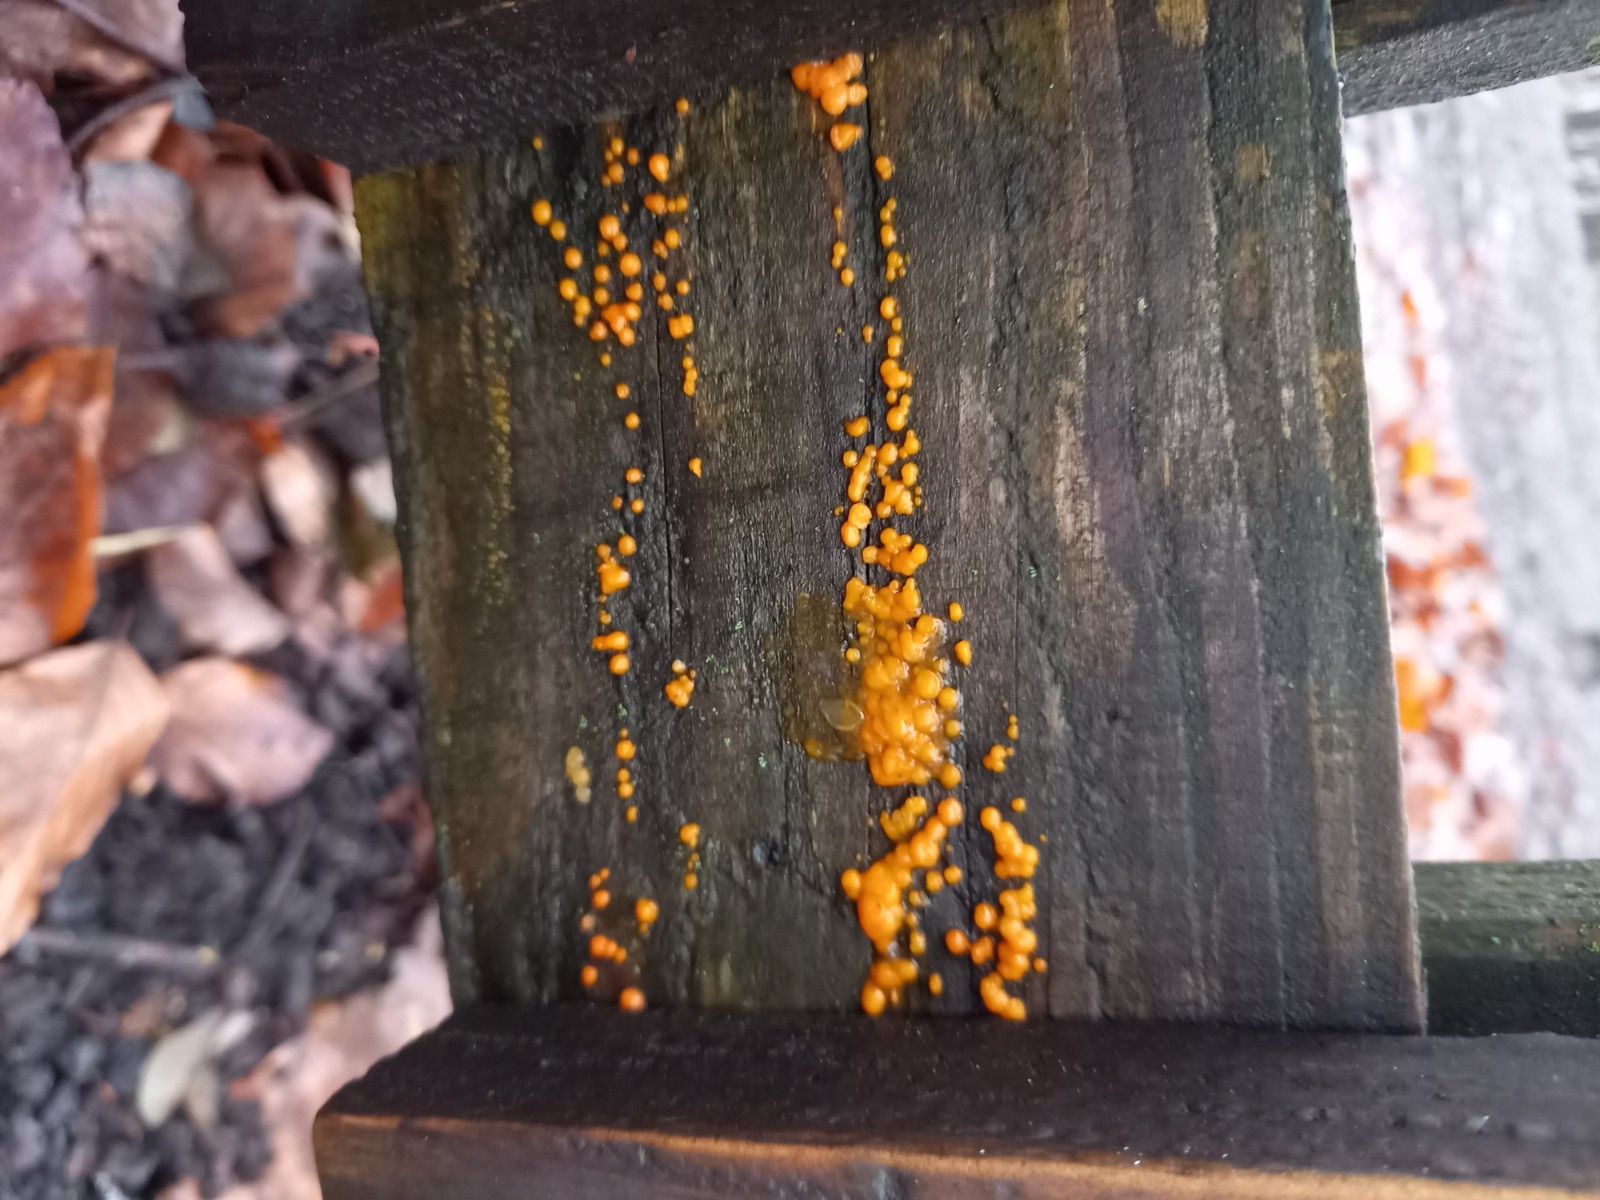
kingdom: Fungi
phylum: Basidiomycota
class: Dacrymycetes
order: Dacrymycetales
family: Dacrymycetaceae
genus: Dacrymyces
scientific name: Dacrymyces stillatus
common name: almindelig tåresvamp
